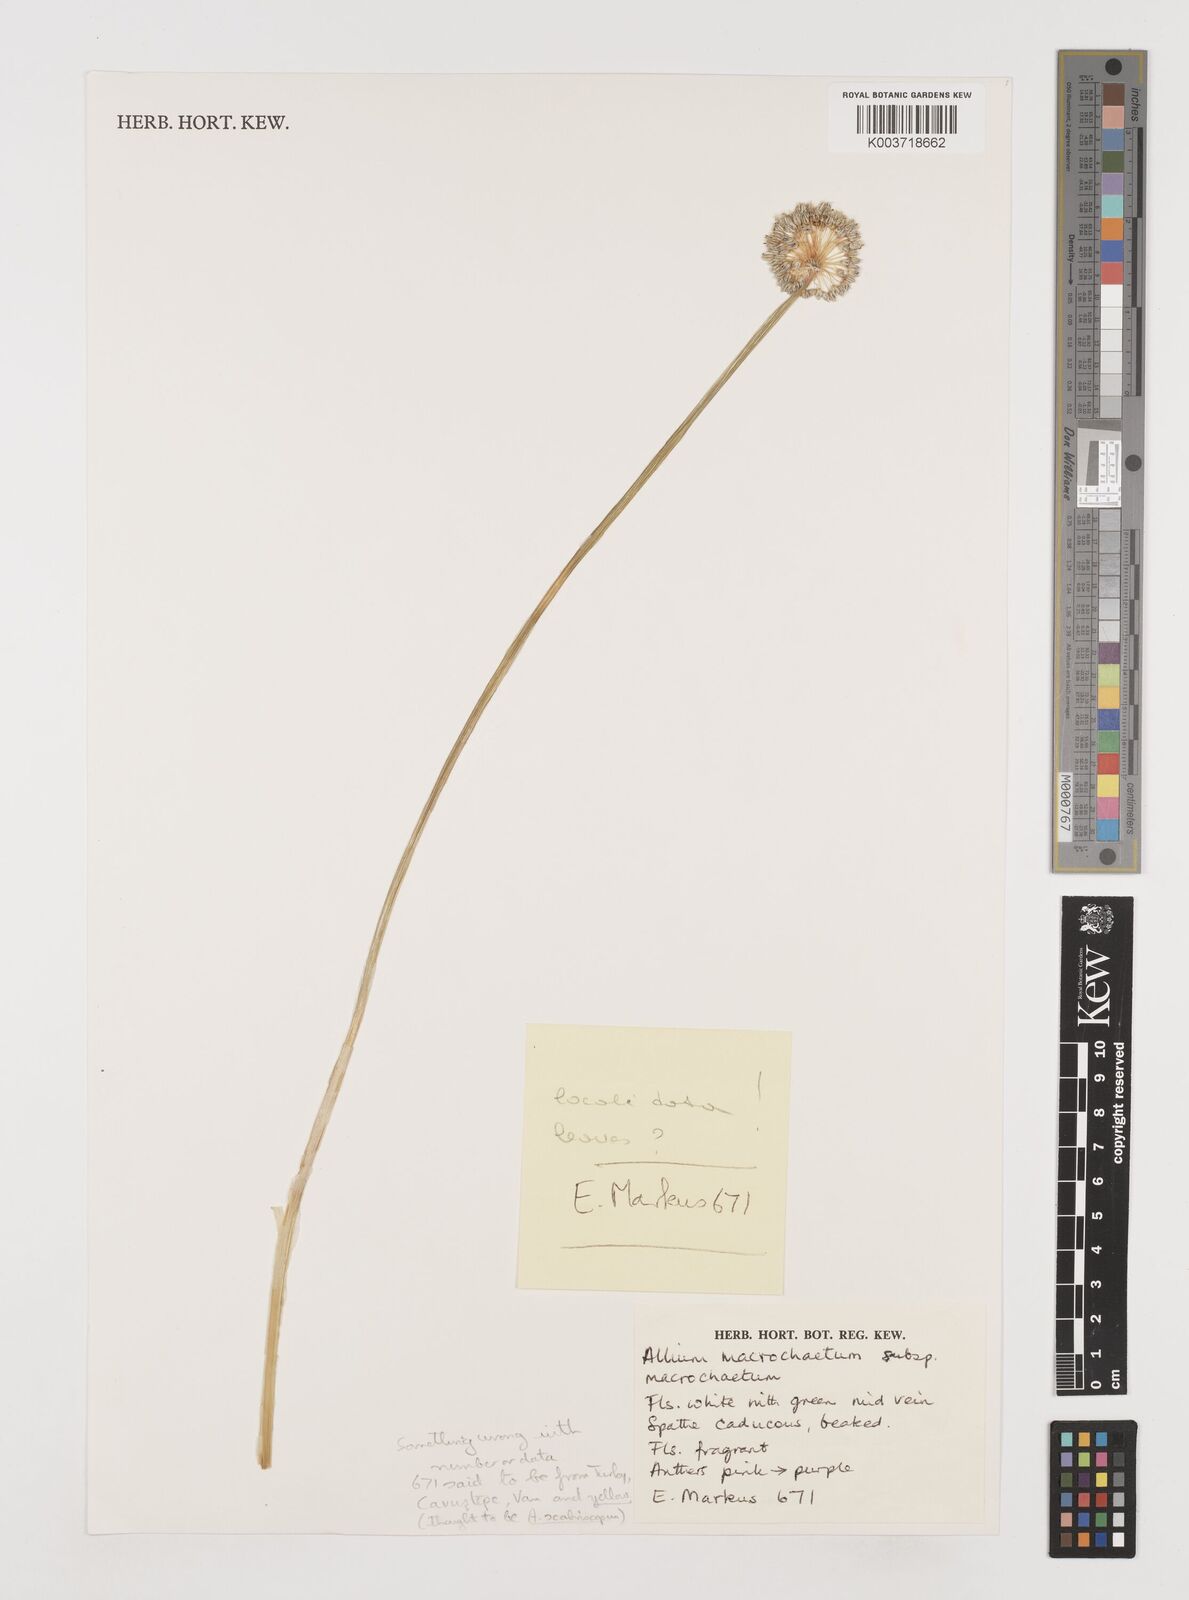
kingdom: Plantae
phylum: Tracheophyta
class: Liliopsida
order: Asparagales
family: Amaryllidaceae
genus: Allium
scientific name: Allium macrochaetum
